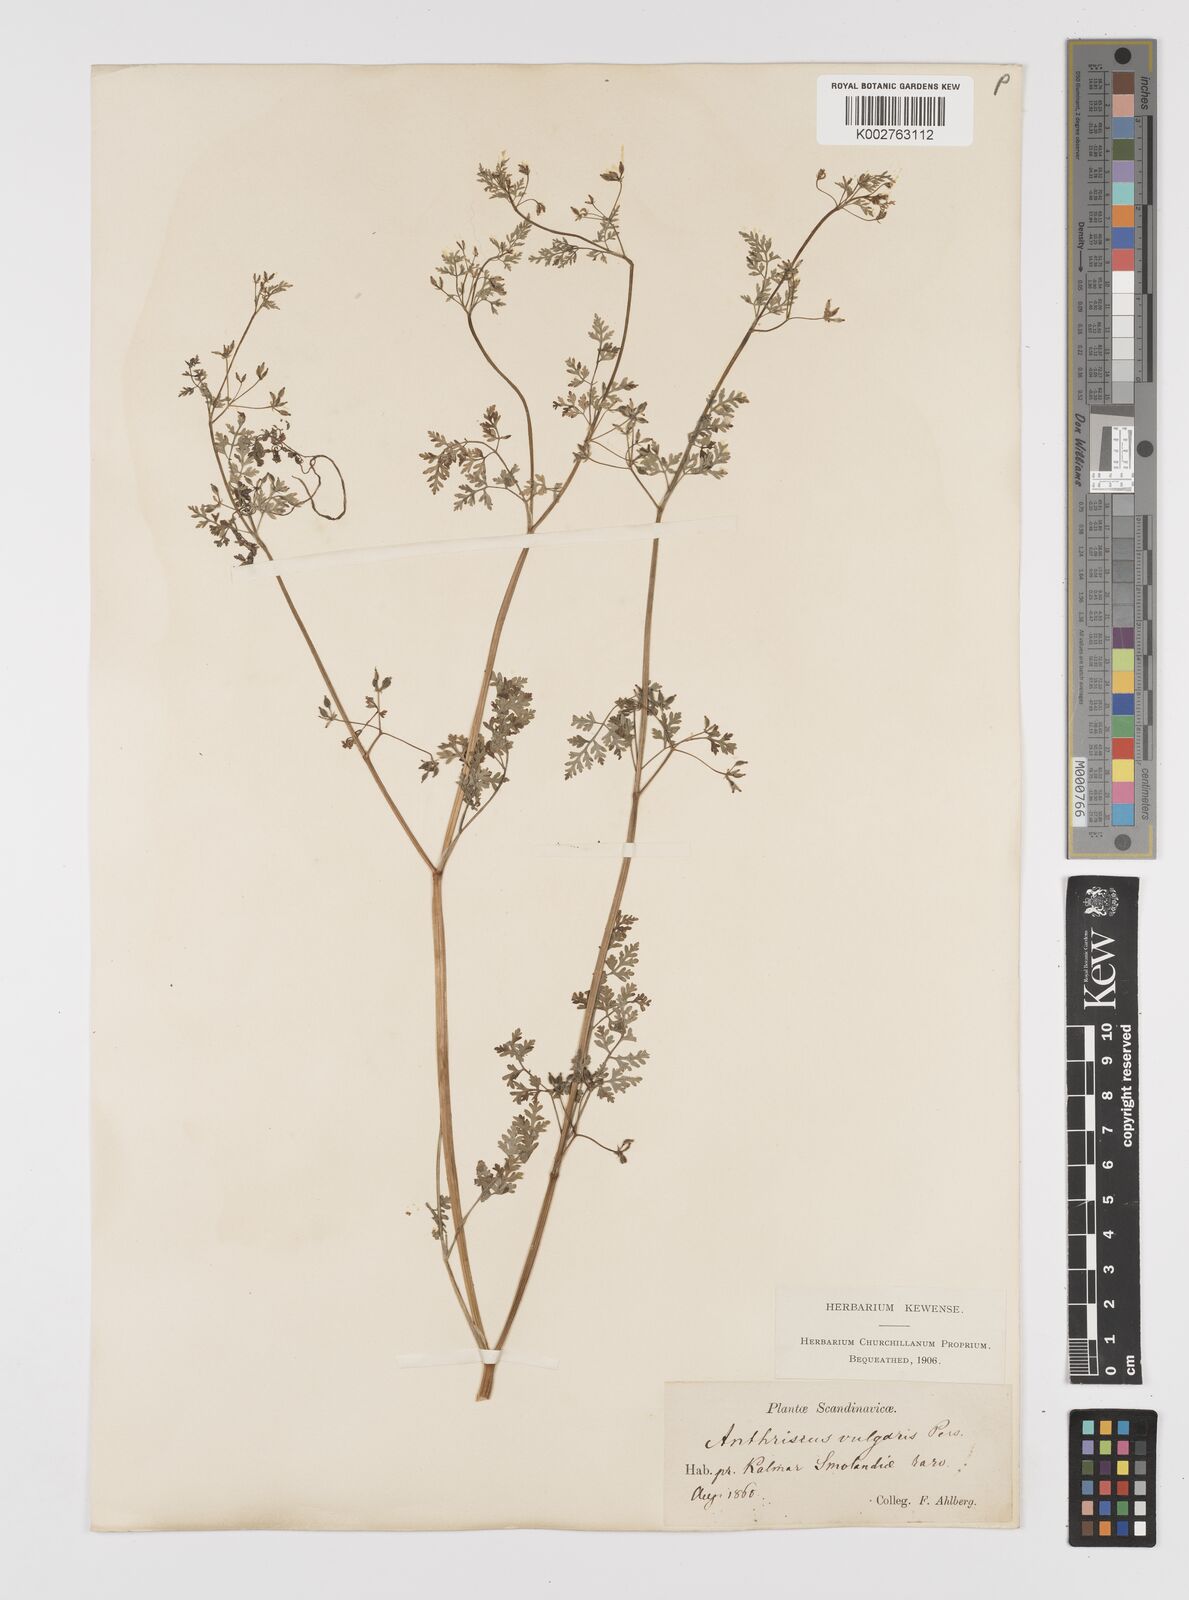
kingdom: Plantae
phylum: Tracheophyta
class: Magnoliopsida
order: Apiales
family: Apiaceae
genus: Anthriscus
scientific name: Anthriscus caucalis
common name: Bur chervil
